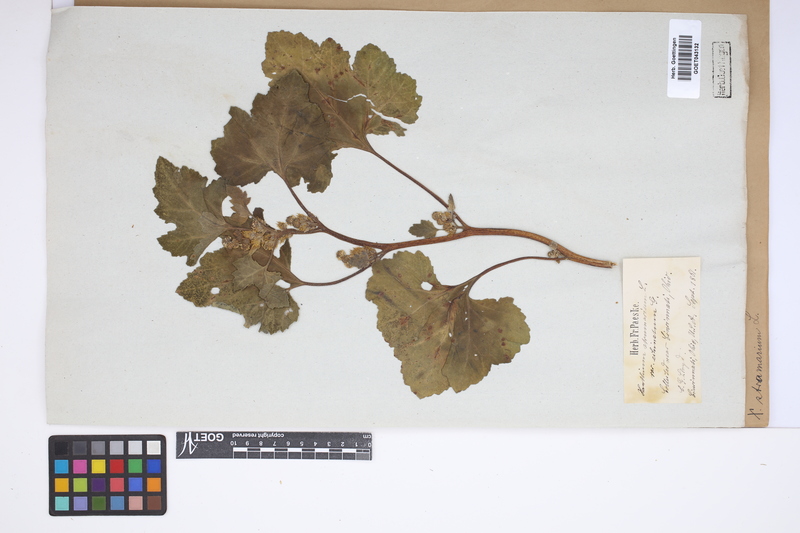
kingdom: Plantae
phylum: Tracheophyta
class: Magnoliopsida
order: Asterales
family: Asteraceae
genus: Xanthium
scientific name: Xanthium orientale
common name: Californian burr
